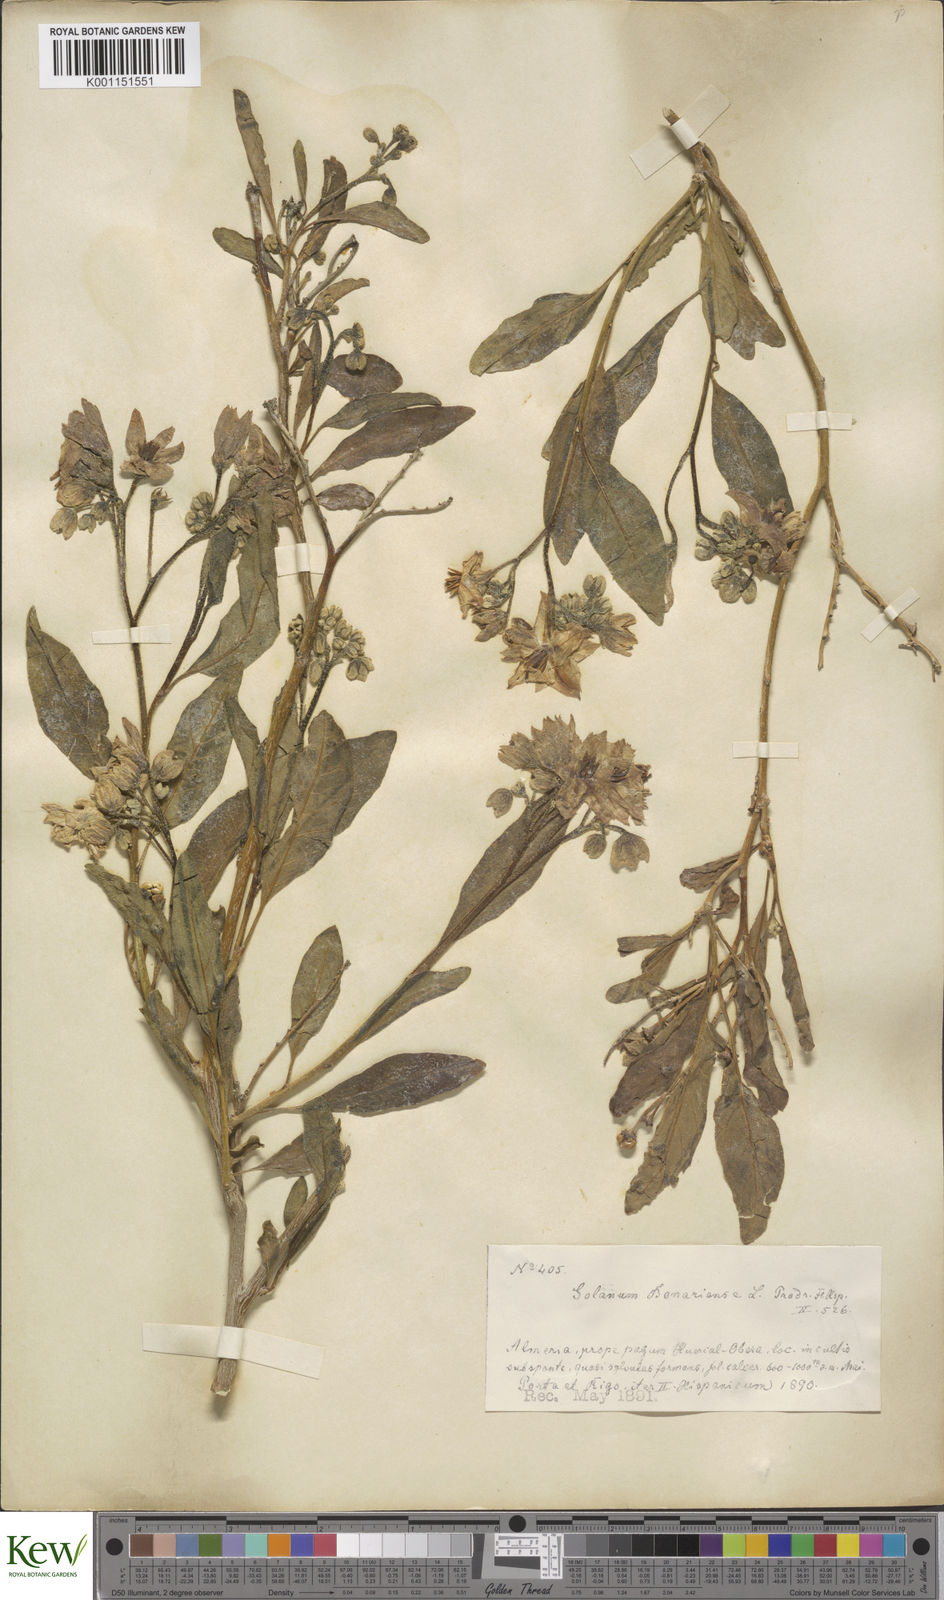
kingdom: Plantae
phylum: Tracheophyta
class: Magnoliopsida
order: Solanales
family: Solanaceae
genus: Solanum
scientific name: Solanum bonariense
